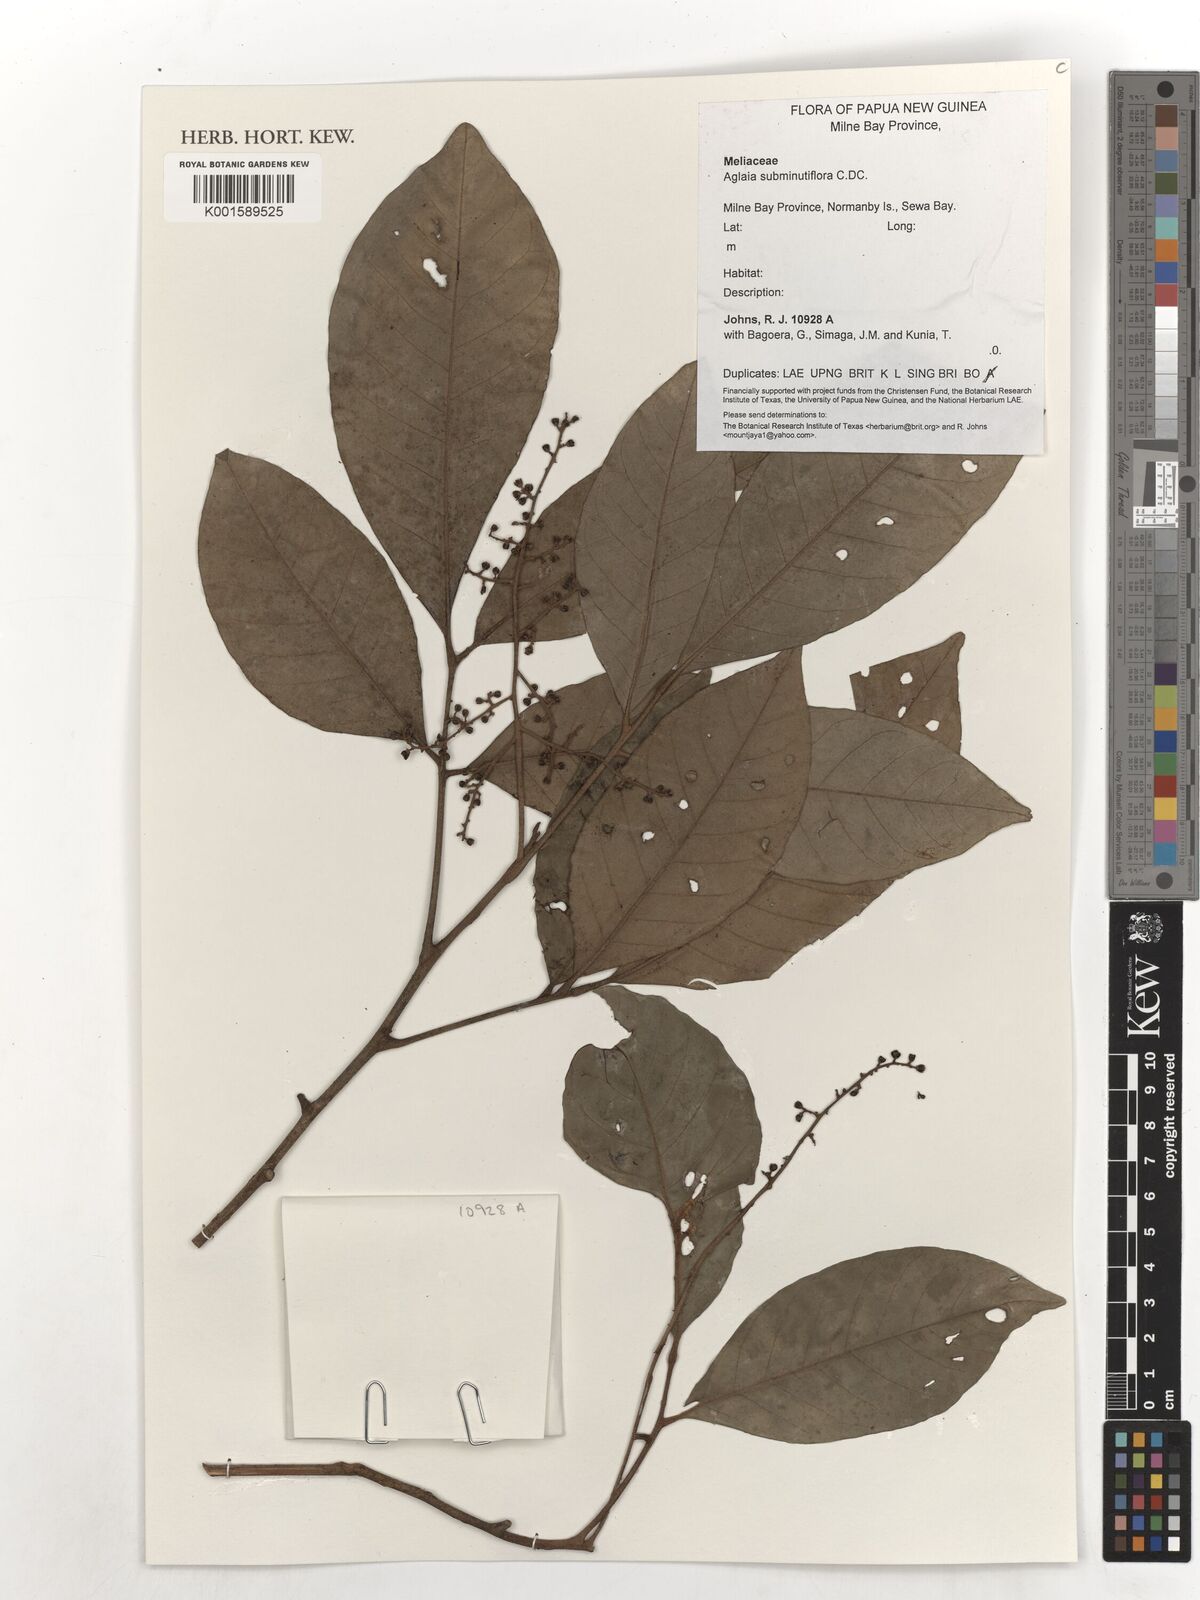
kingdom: Plantae
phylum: Tracheophyta
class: Magnoliopsida
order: Sapindales
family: Meliaceae
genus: Aglaia
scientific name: Aglaia subminutiflora
